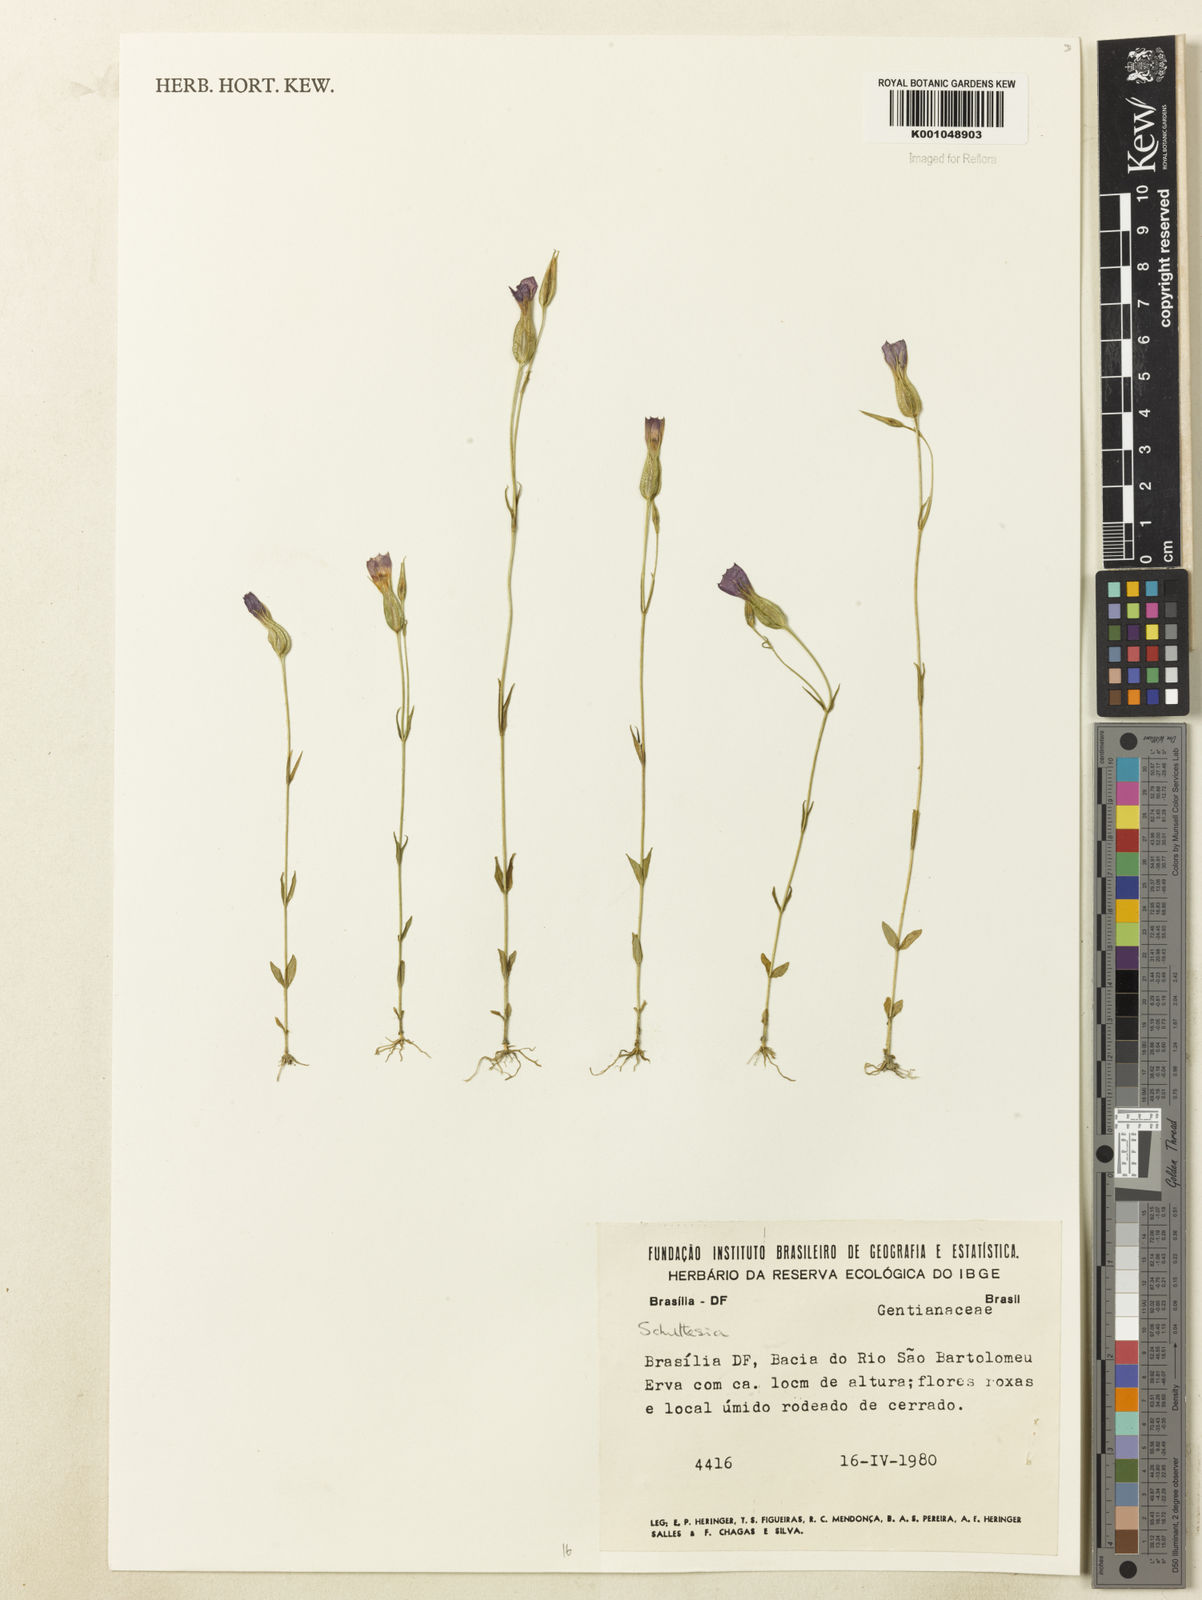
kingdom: Plantae
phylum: Tracheophyta
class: Magnoliopsida
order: Gentianales
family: Gentianaceae
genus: Schultesia
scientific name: Schultesia
